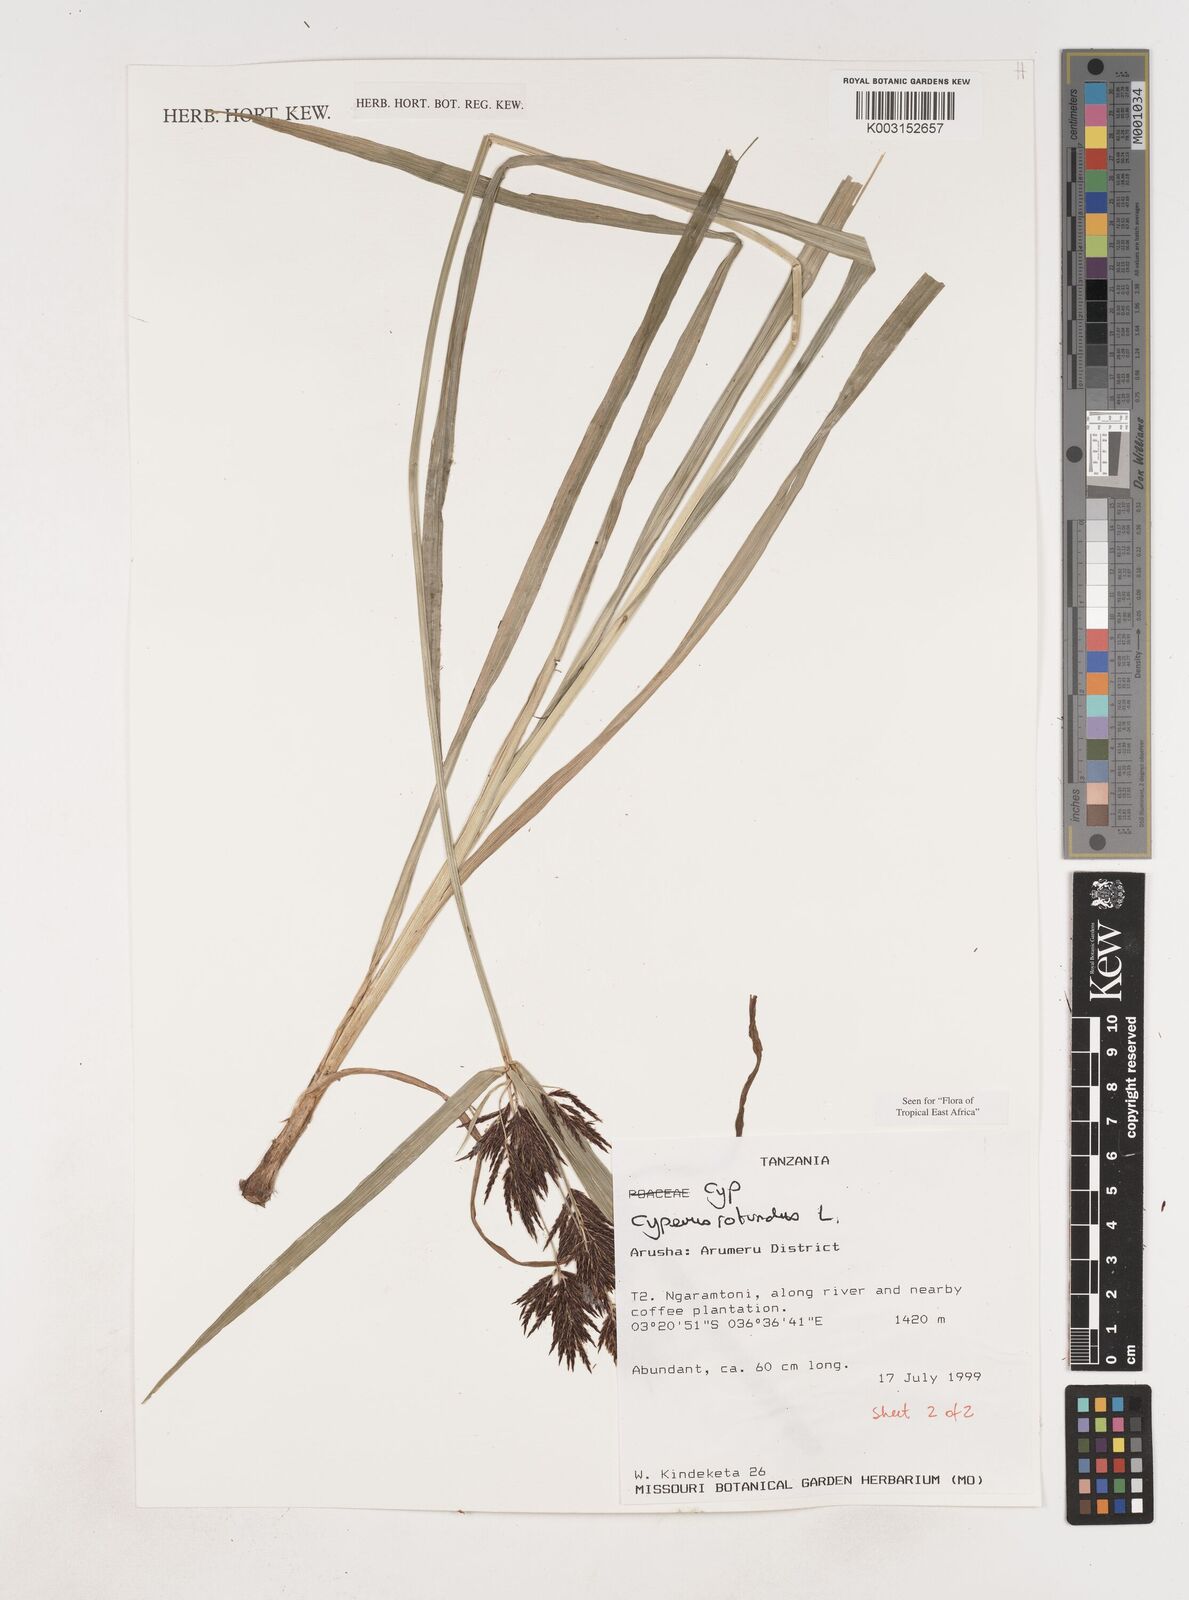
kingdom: Plantae
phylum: Tracheophyta
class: Liliopsida
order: Poales
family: Cyperaceae
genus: Cyperus
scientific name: Cyperus rotundus
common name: Nutgrass
